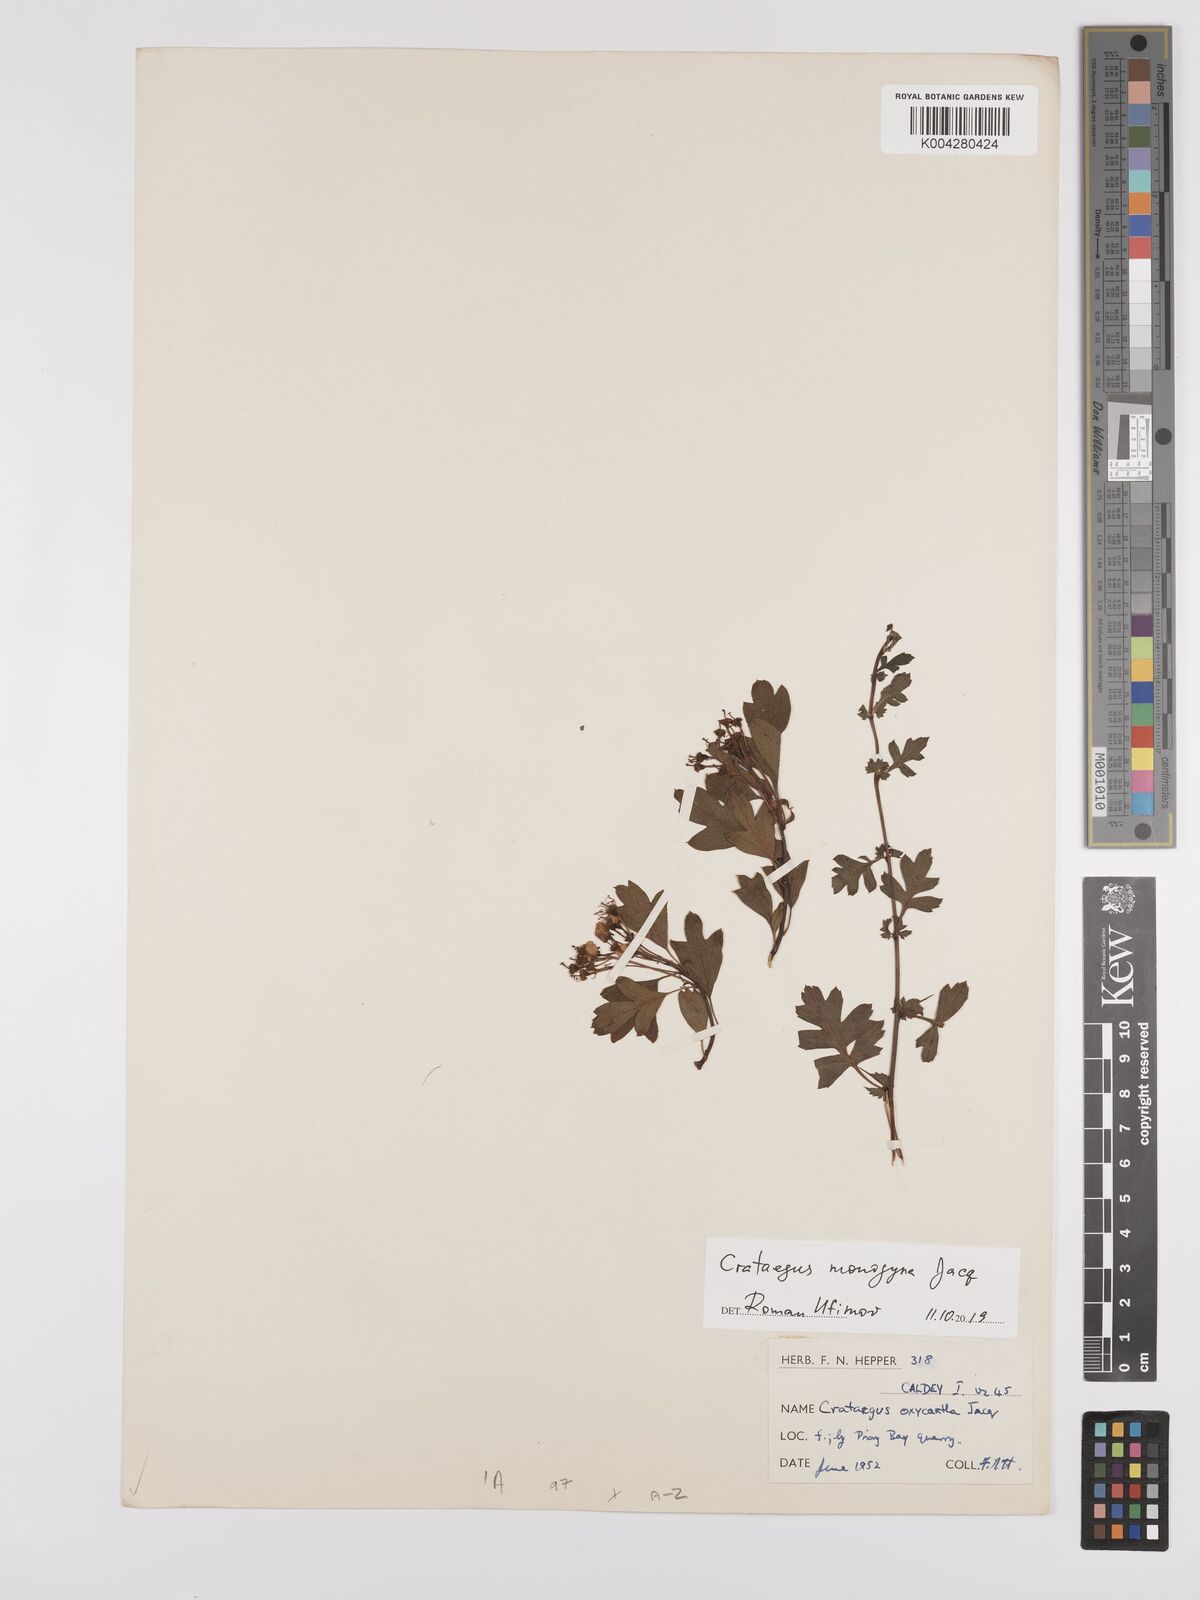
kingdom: Plantae
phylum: Tracheophyta
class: Magnoliopsida
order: Rosales
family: Rosaceae
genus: Crataegus
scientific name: Crataegus monogyna
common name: Hawthorn
